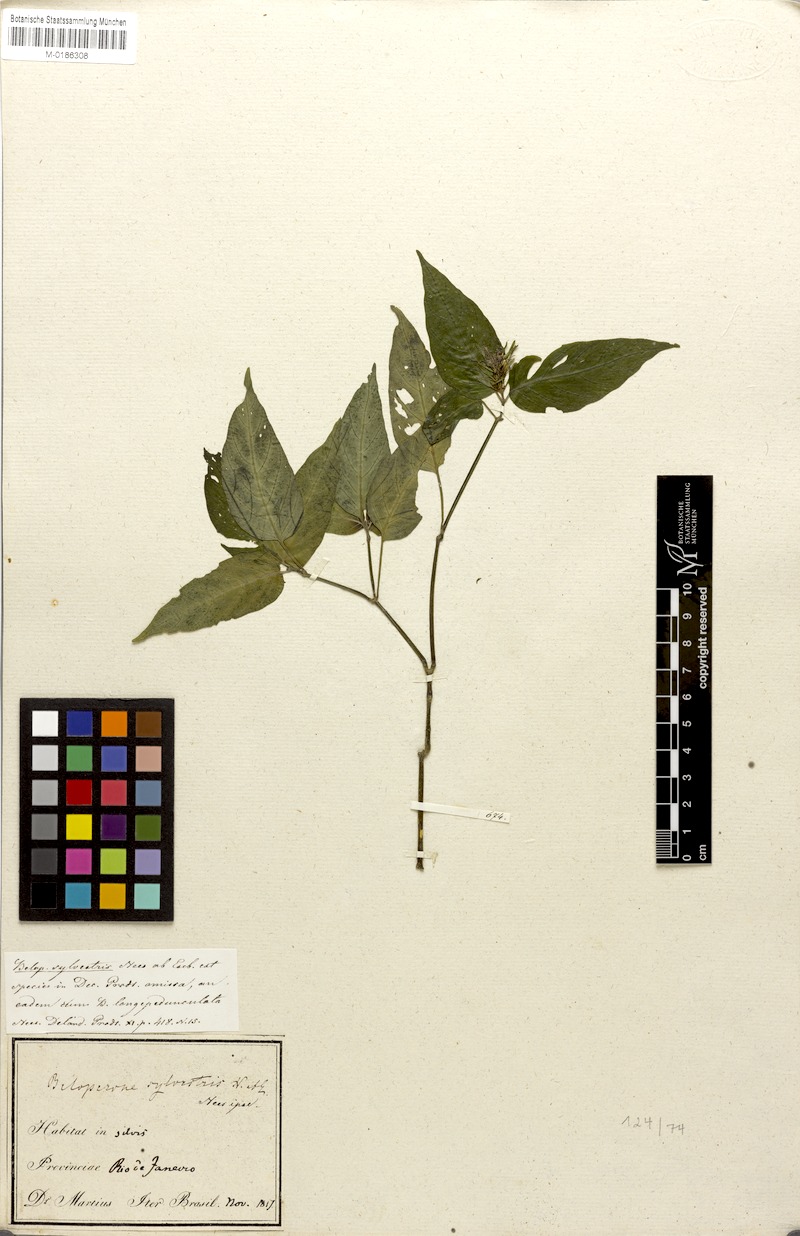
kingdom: Plantae
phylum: Tracheophyta
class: Magnoliopsida
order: Lamiales
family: Acanthaceae
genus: Justicia
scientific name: Justicia Beloperone longipetiolata
